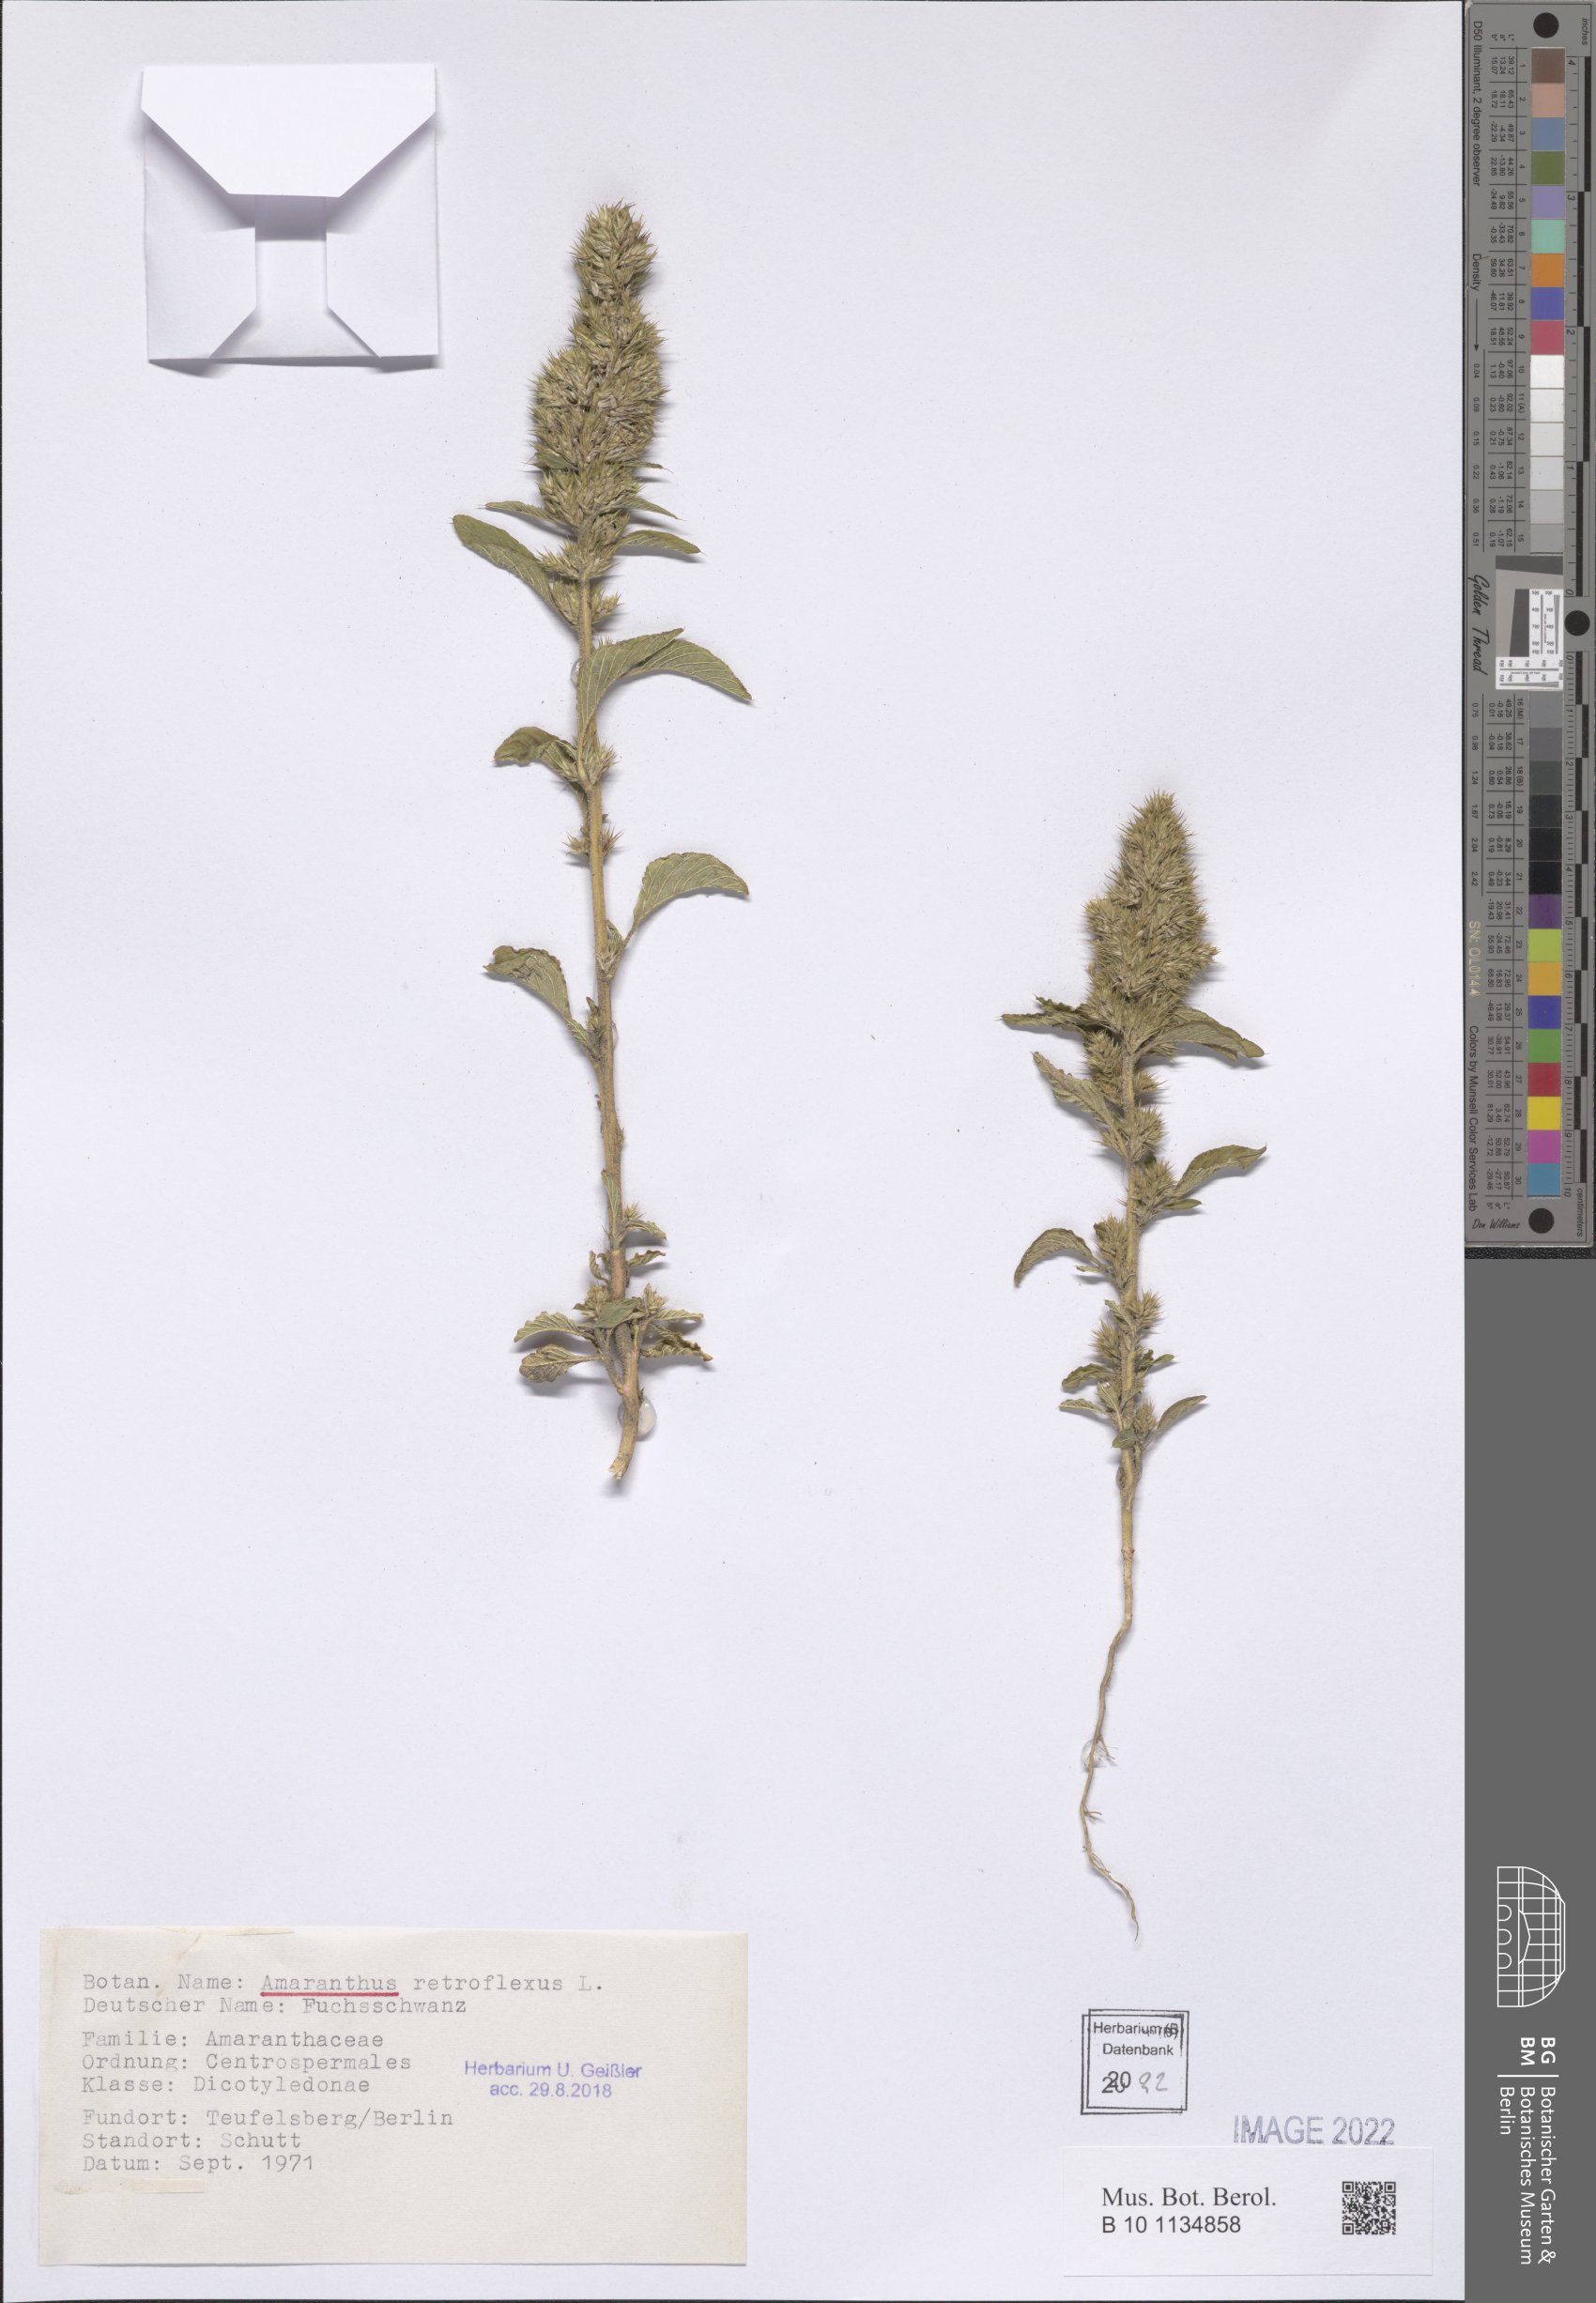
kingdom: Plantae
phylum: Tracheophyta
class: Magnoliopsida
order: Caryophyllales
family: Amaranthaceae
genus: Amaranthus
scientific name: Amaranthus retroflexus
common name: Redroot amaranth
